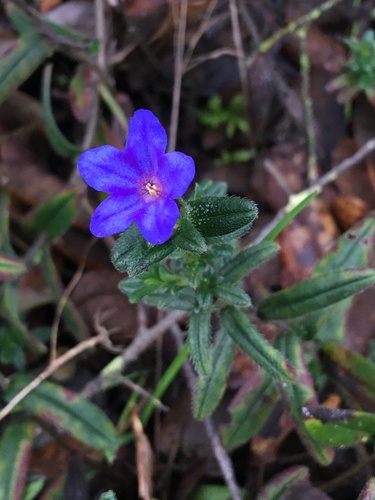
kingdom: Plantae
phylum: Tracheophyta
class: Magnoliopsida
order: Boraginales
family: Boraginaceae
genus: Glandora
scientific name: Glandora prostrata
